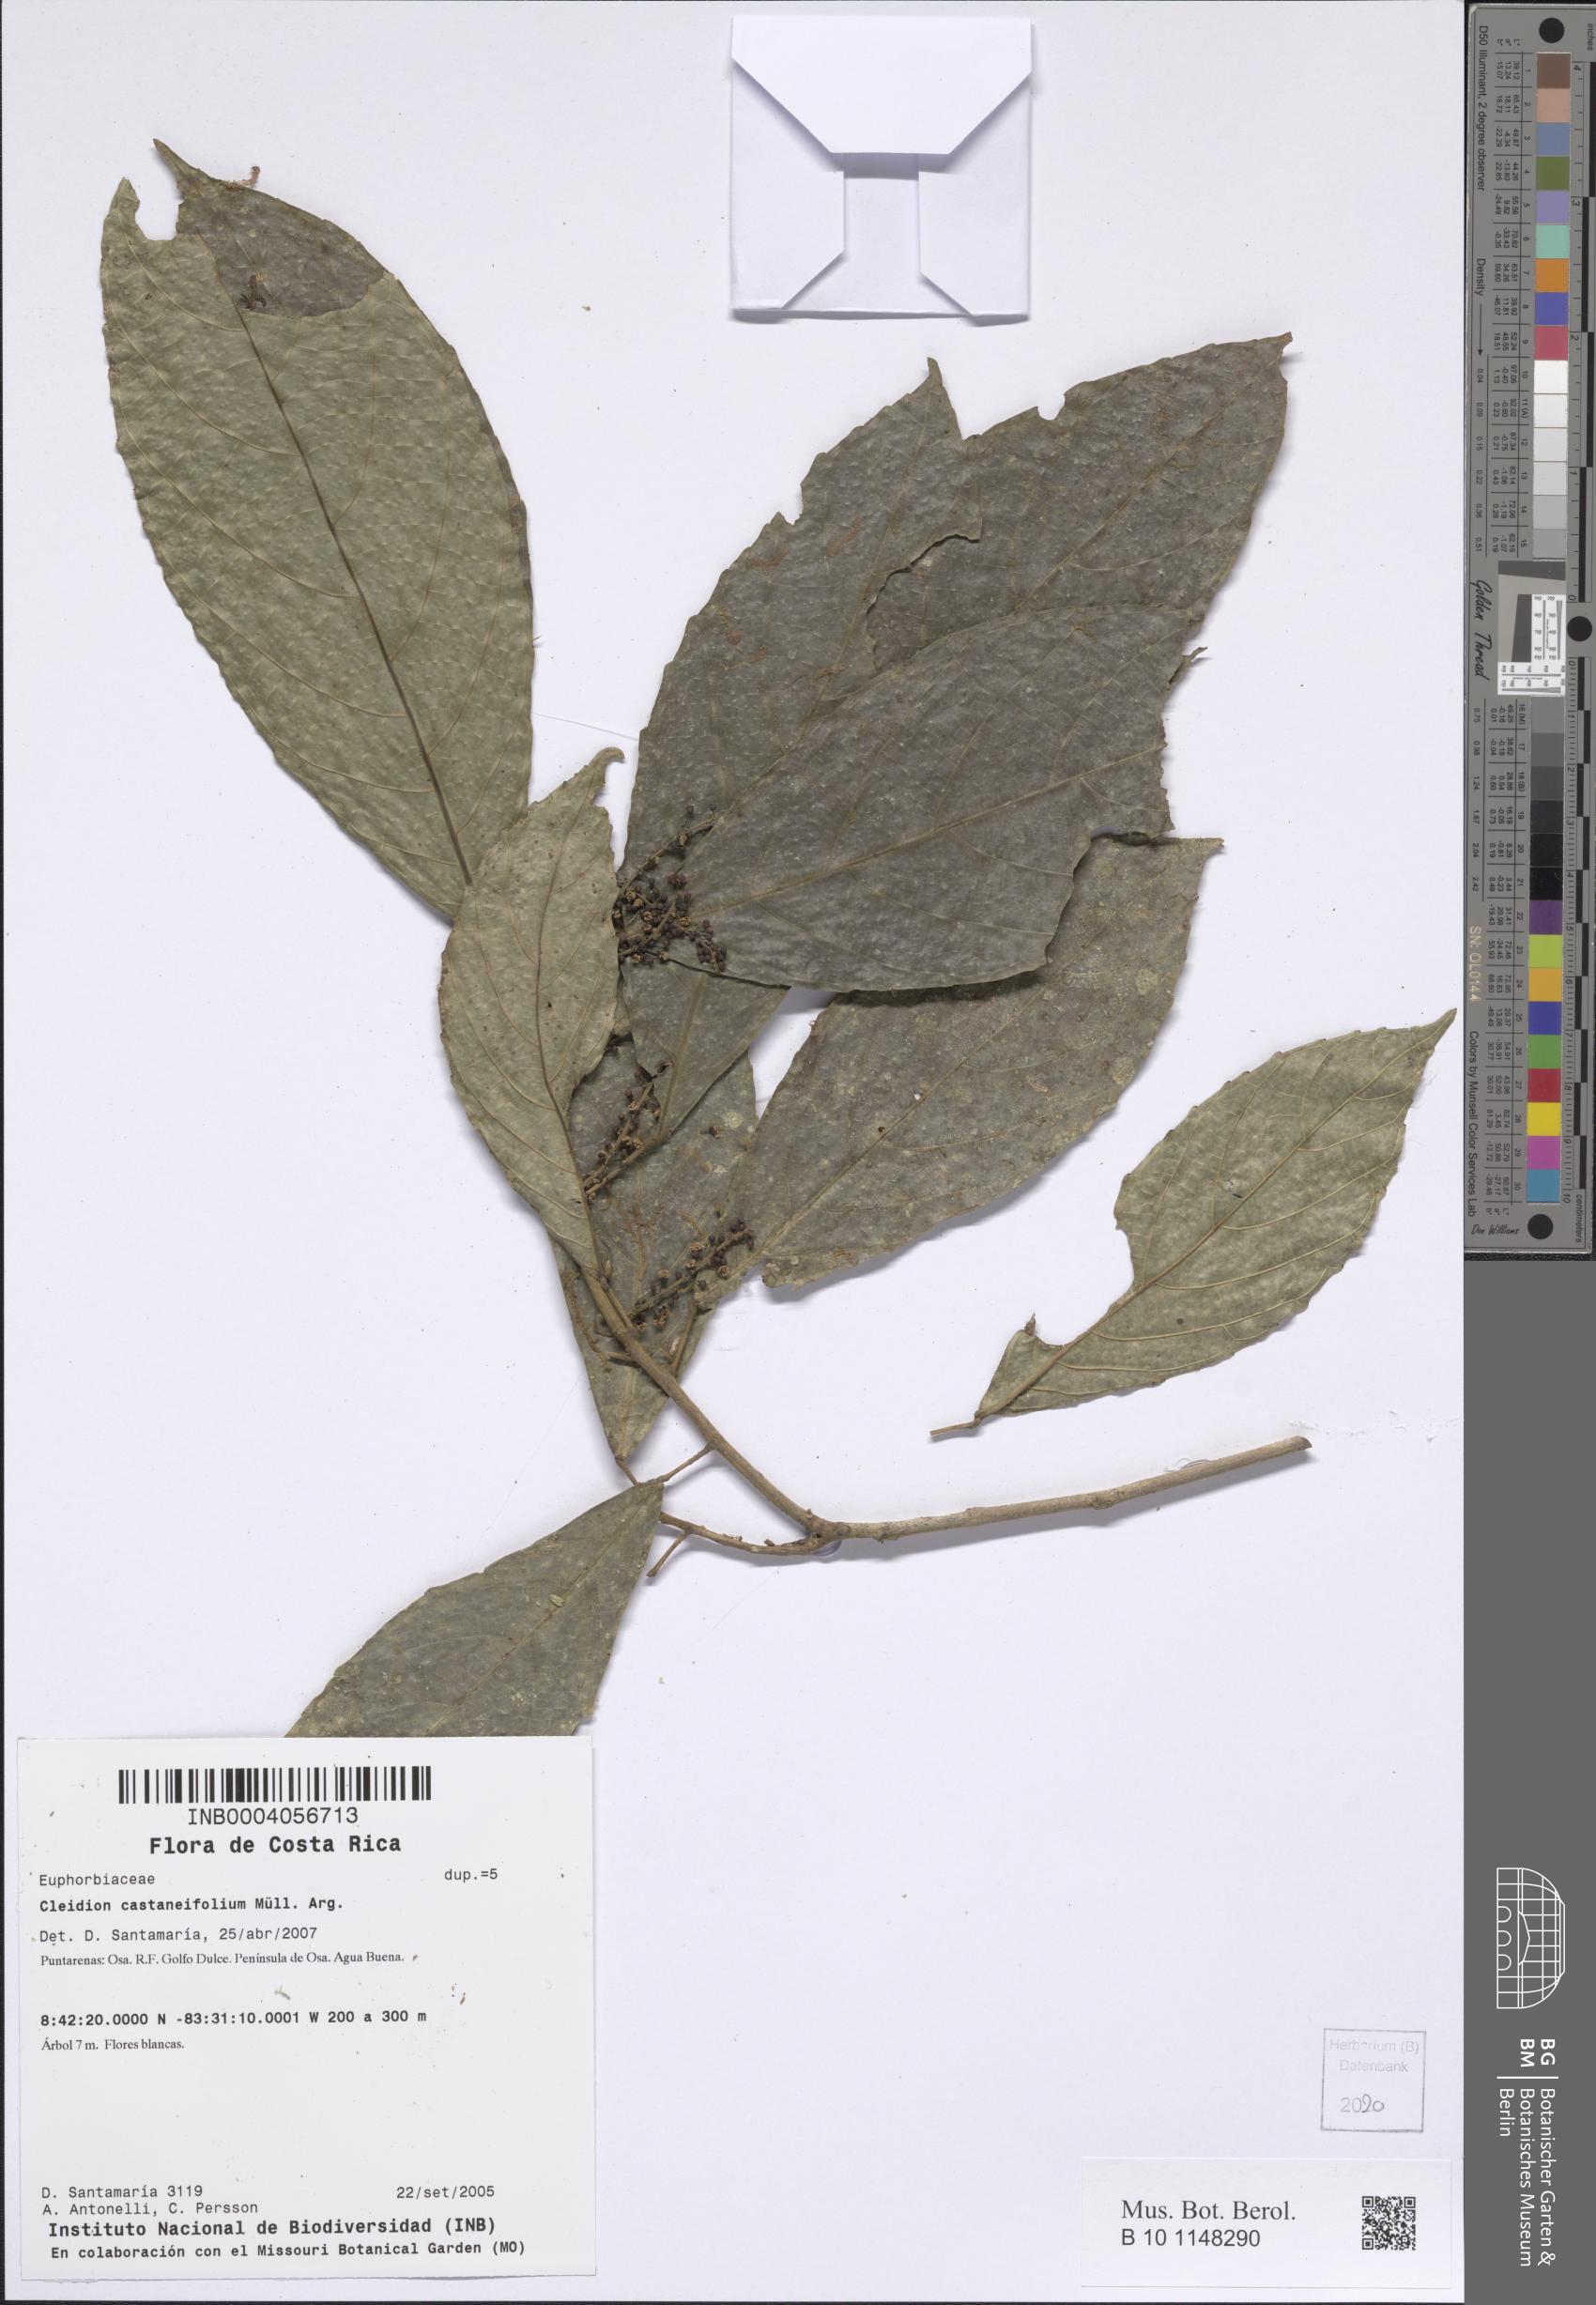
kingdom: Plantae
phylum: Tracheophyta
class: Magnoliopsida
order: Malpighiales
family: Euphorbiaceae
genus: Cleidion
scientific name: Cleidion castaneifolium
